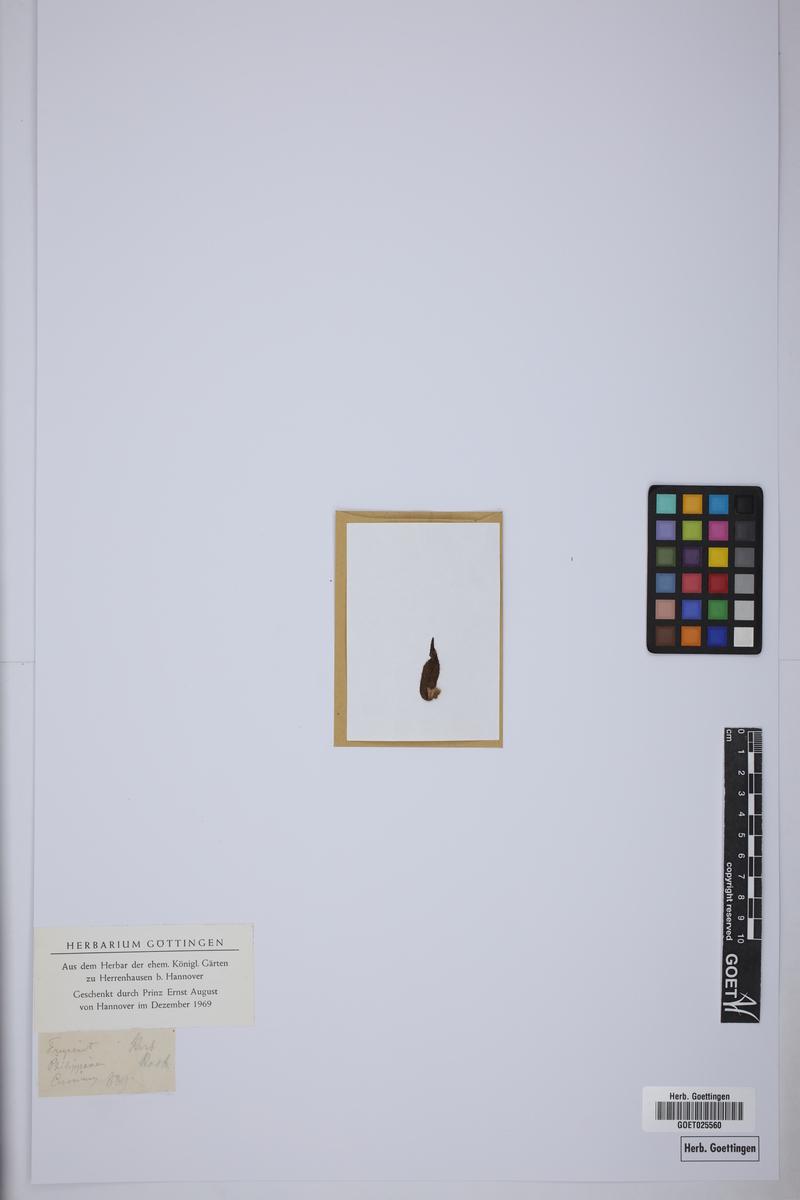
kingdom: Plantae
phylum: Tracheophyta
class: Liliopsida
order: Pandanales
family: Pandanaceae
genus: Freycinetia
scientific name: Freycinetia
